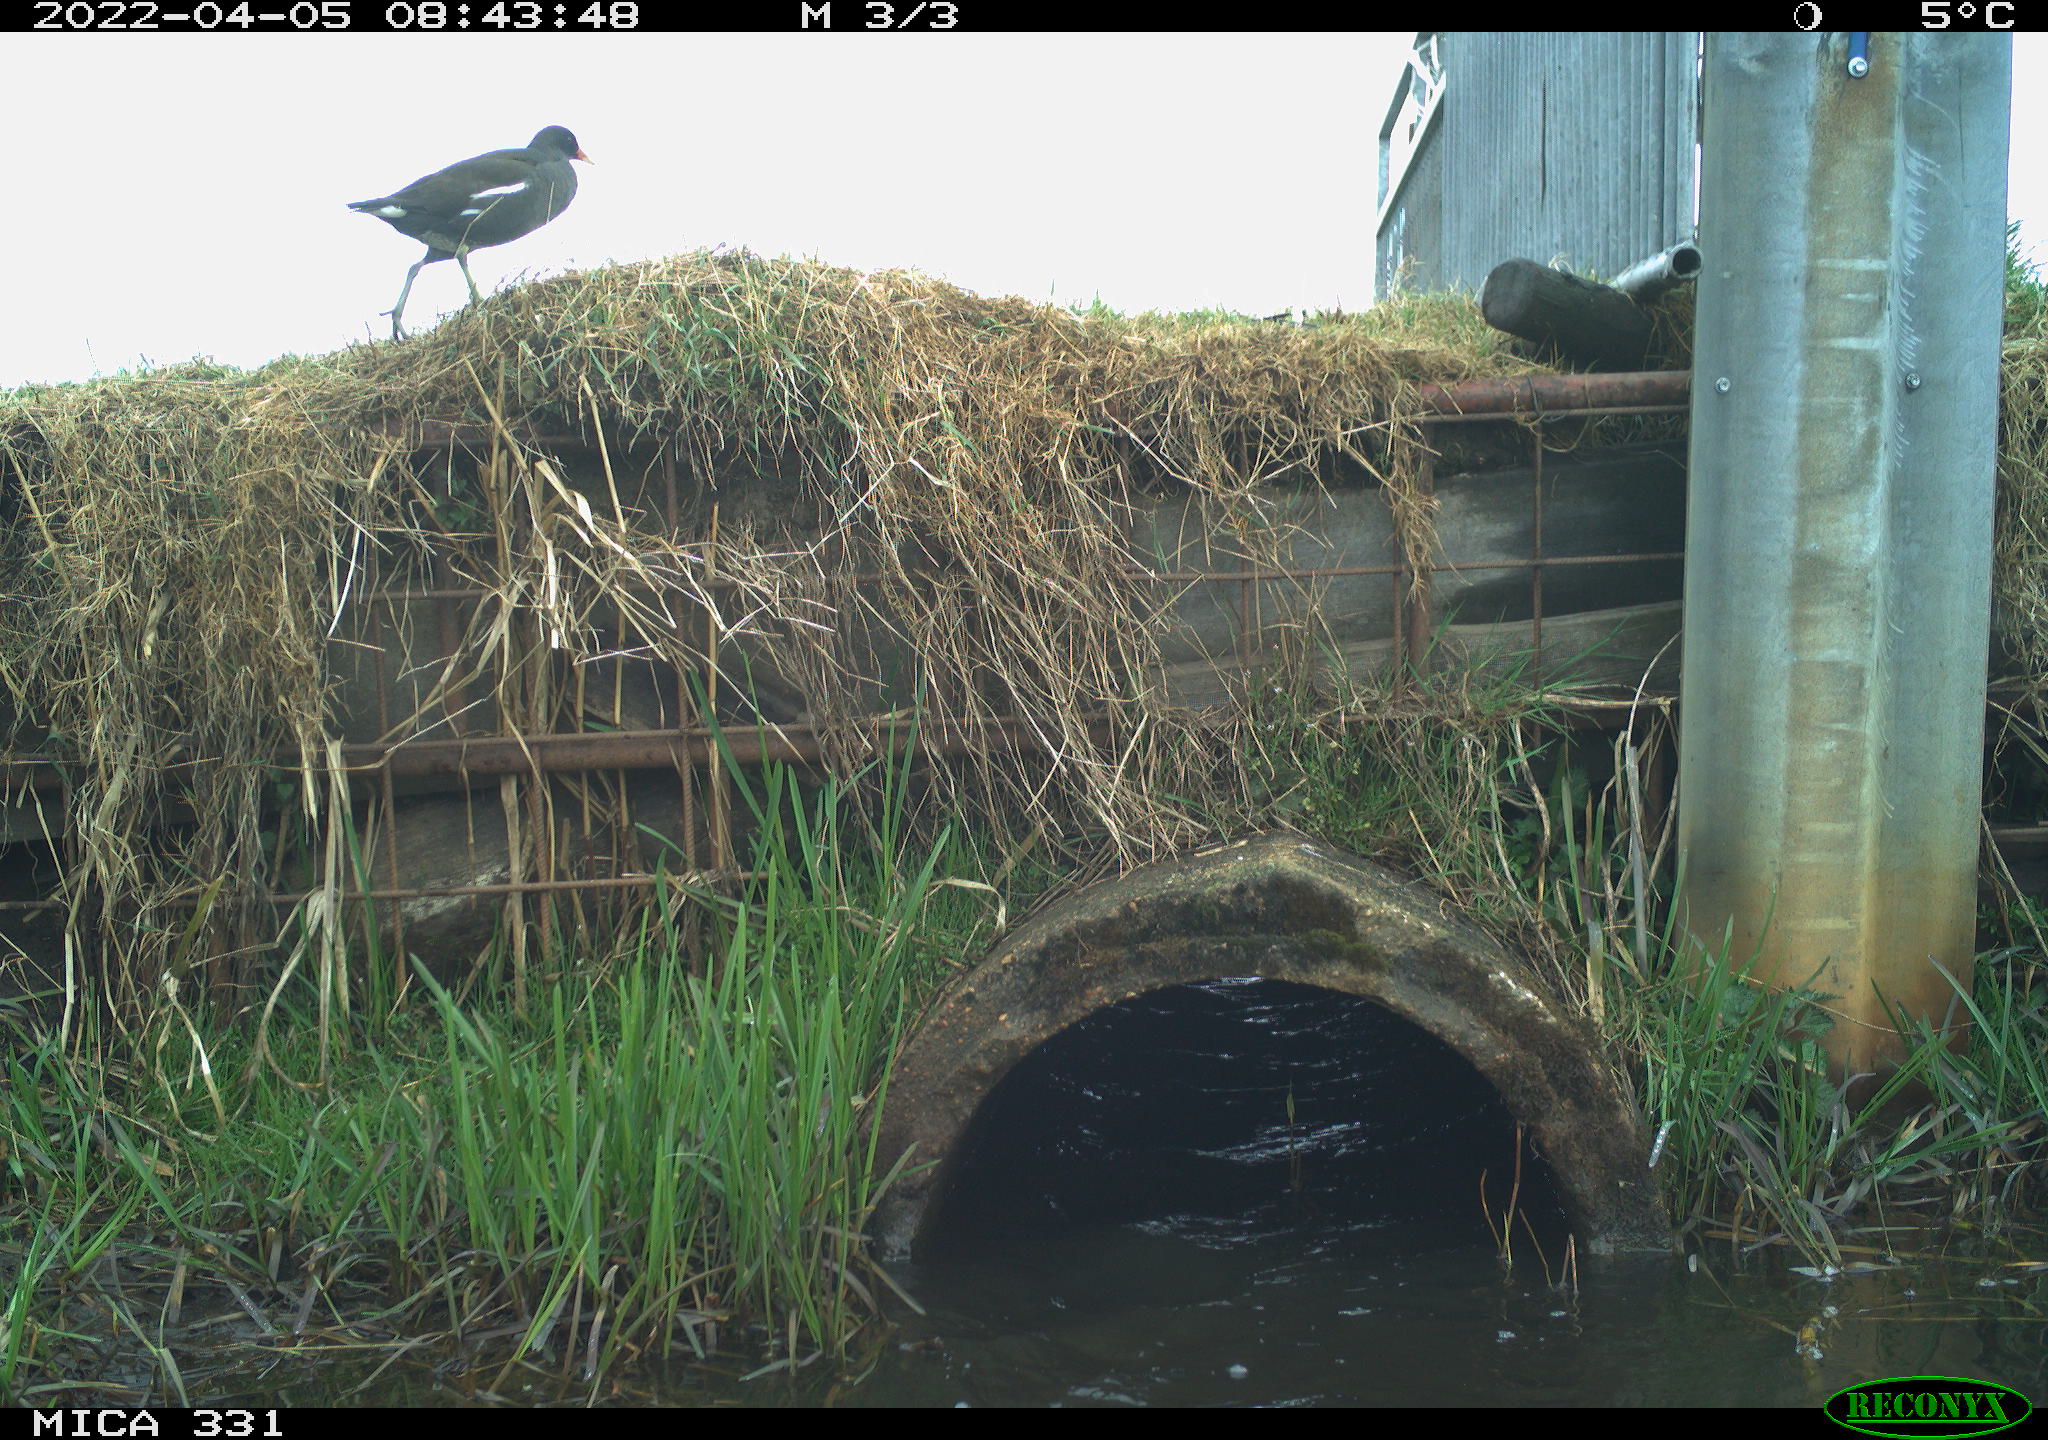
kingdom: Animalia
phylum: Chordata
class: Aves
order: Gruiformes
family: Rallidae
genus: Gallinula
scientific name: Gallinula chloropus
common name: Common moorhen
